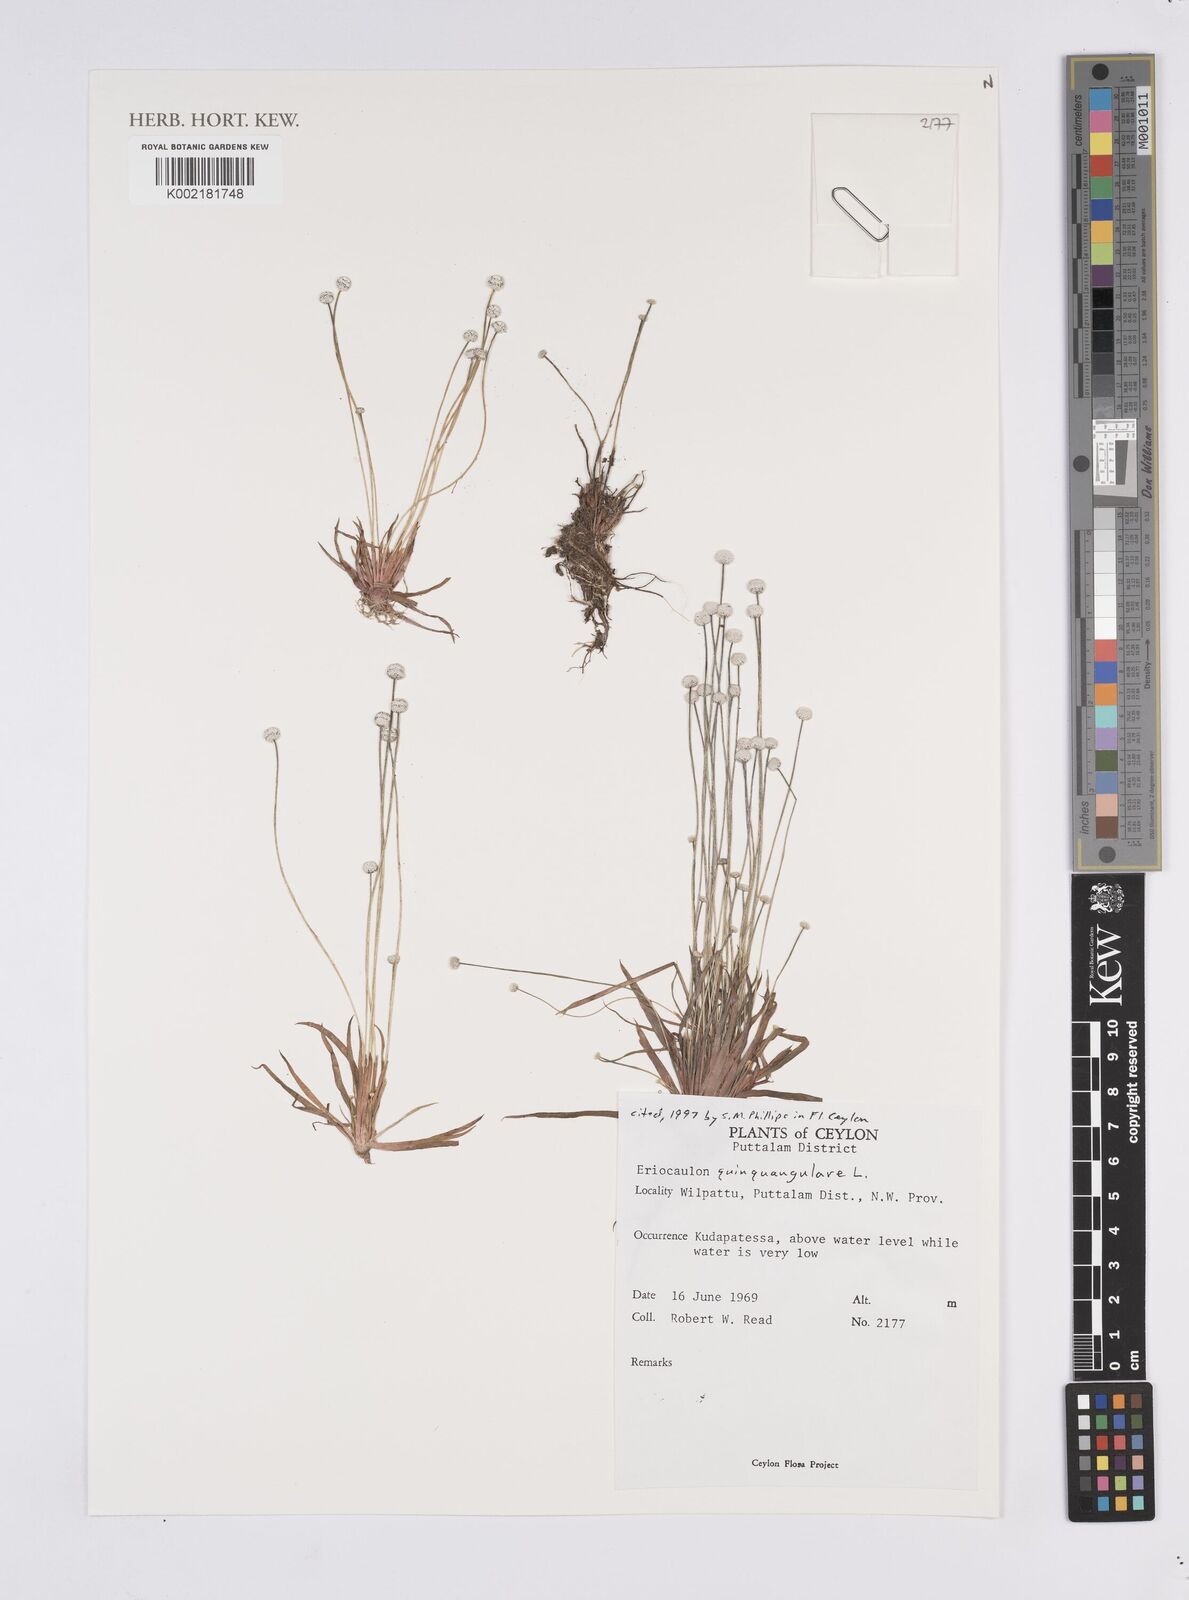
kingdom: Plantae
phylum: Tracheophyta
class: Liliopsida
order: Poales
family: Eriocaulaceae
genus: Eriocaulon
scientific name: Eriocaulon quinquangulare
